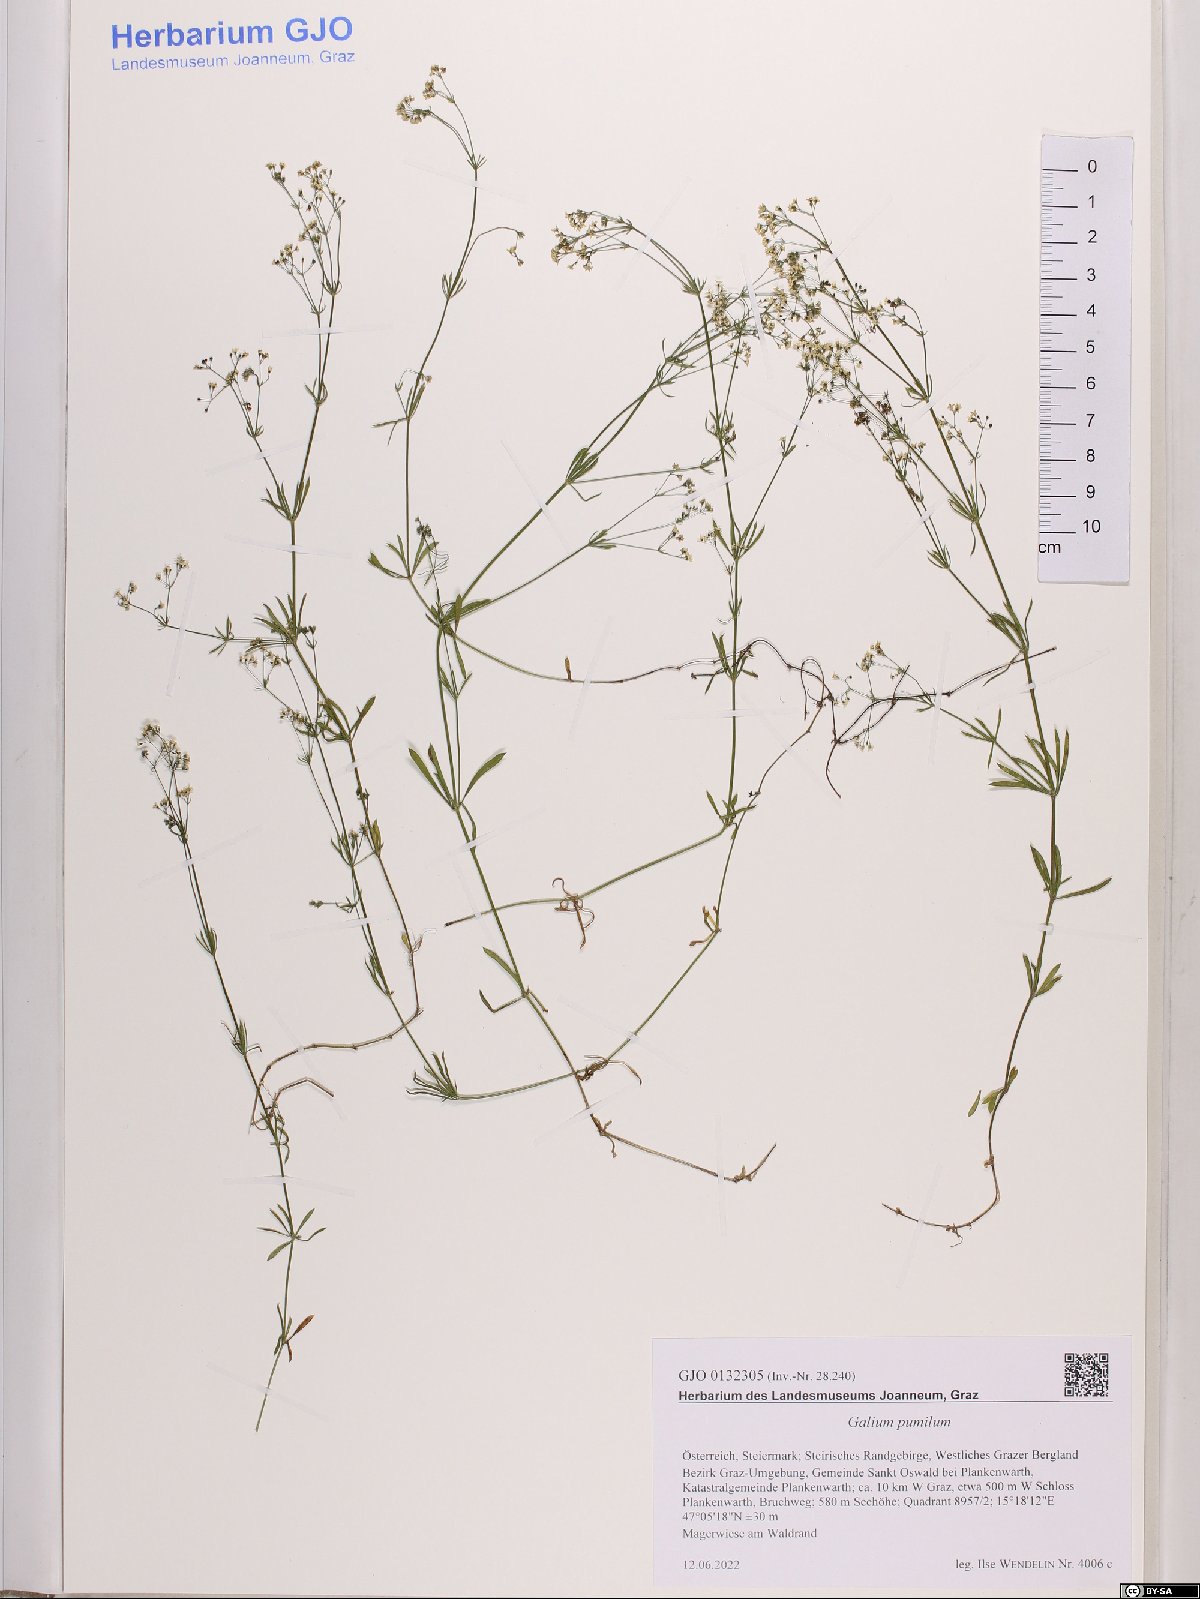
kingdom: Plantae
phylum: Tracheophyta
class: Magnoliopsida
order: Gentianales
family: Rubiaceae
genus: Galium
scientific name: Galium pumilum
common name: Slender bedstraw
